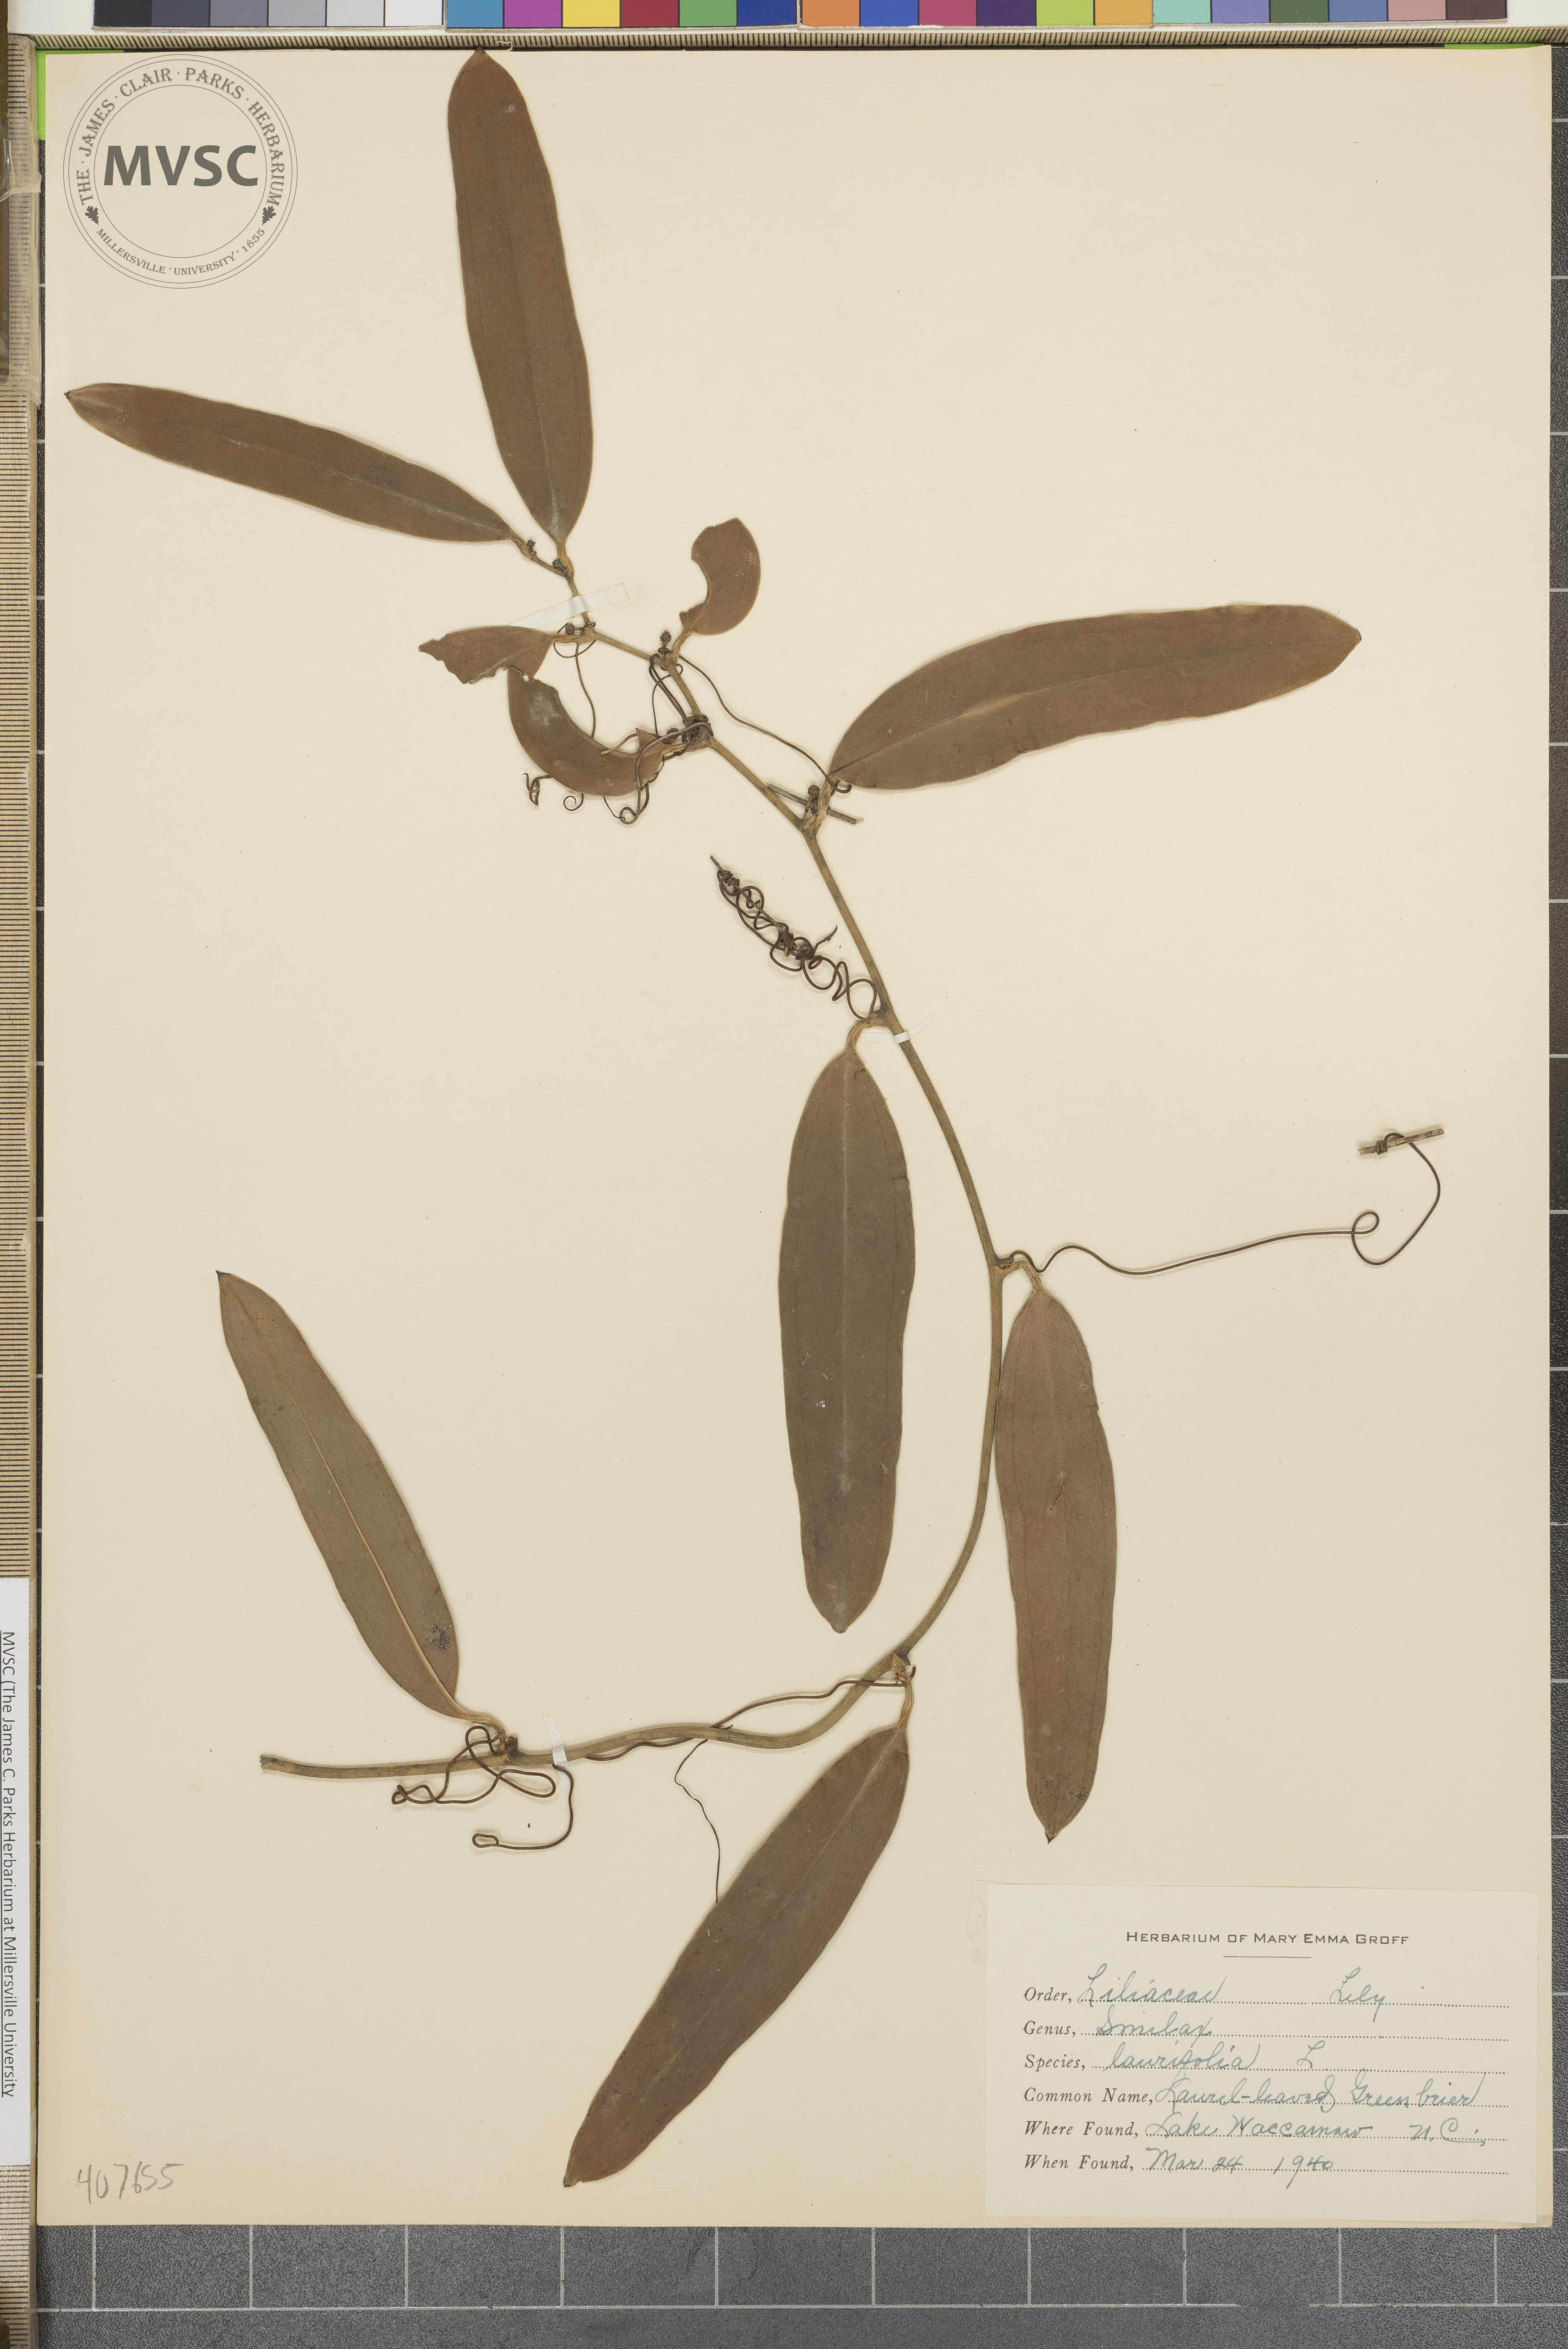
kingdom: Plantae
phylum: Tracheophyta
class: Liliopsida
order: Liliales
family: Smilacaceae
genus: Smilax
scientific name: Smilax laurifolia
